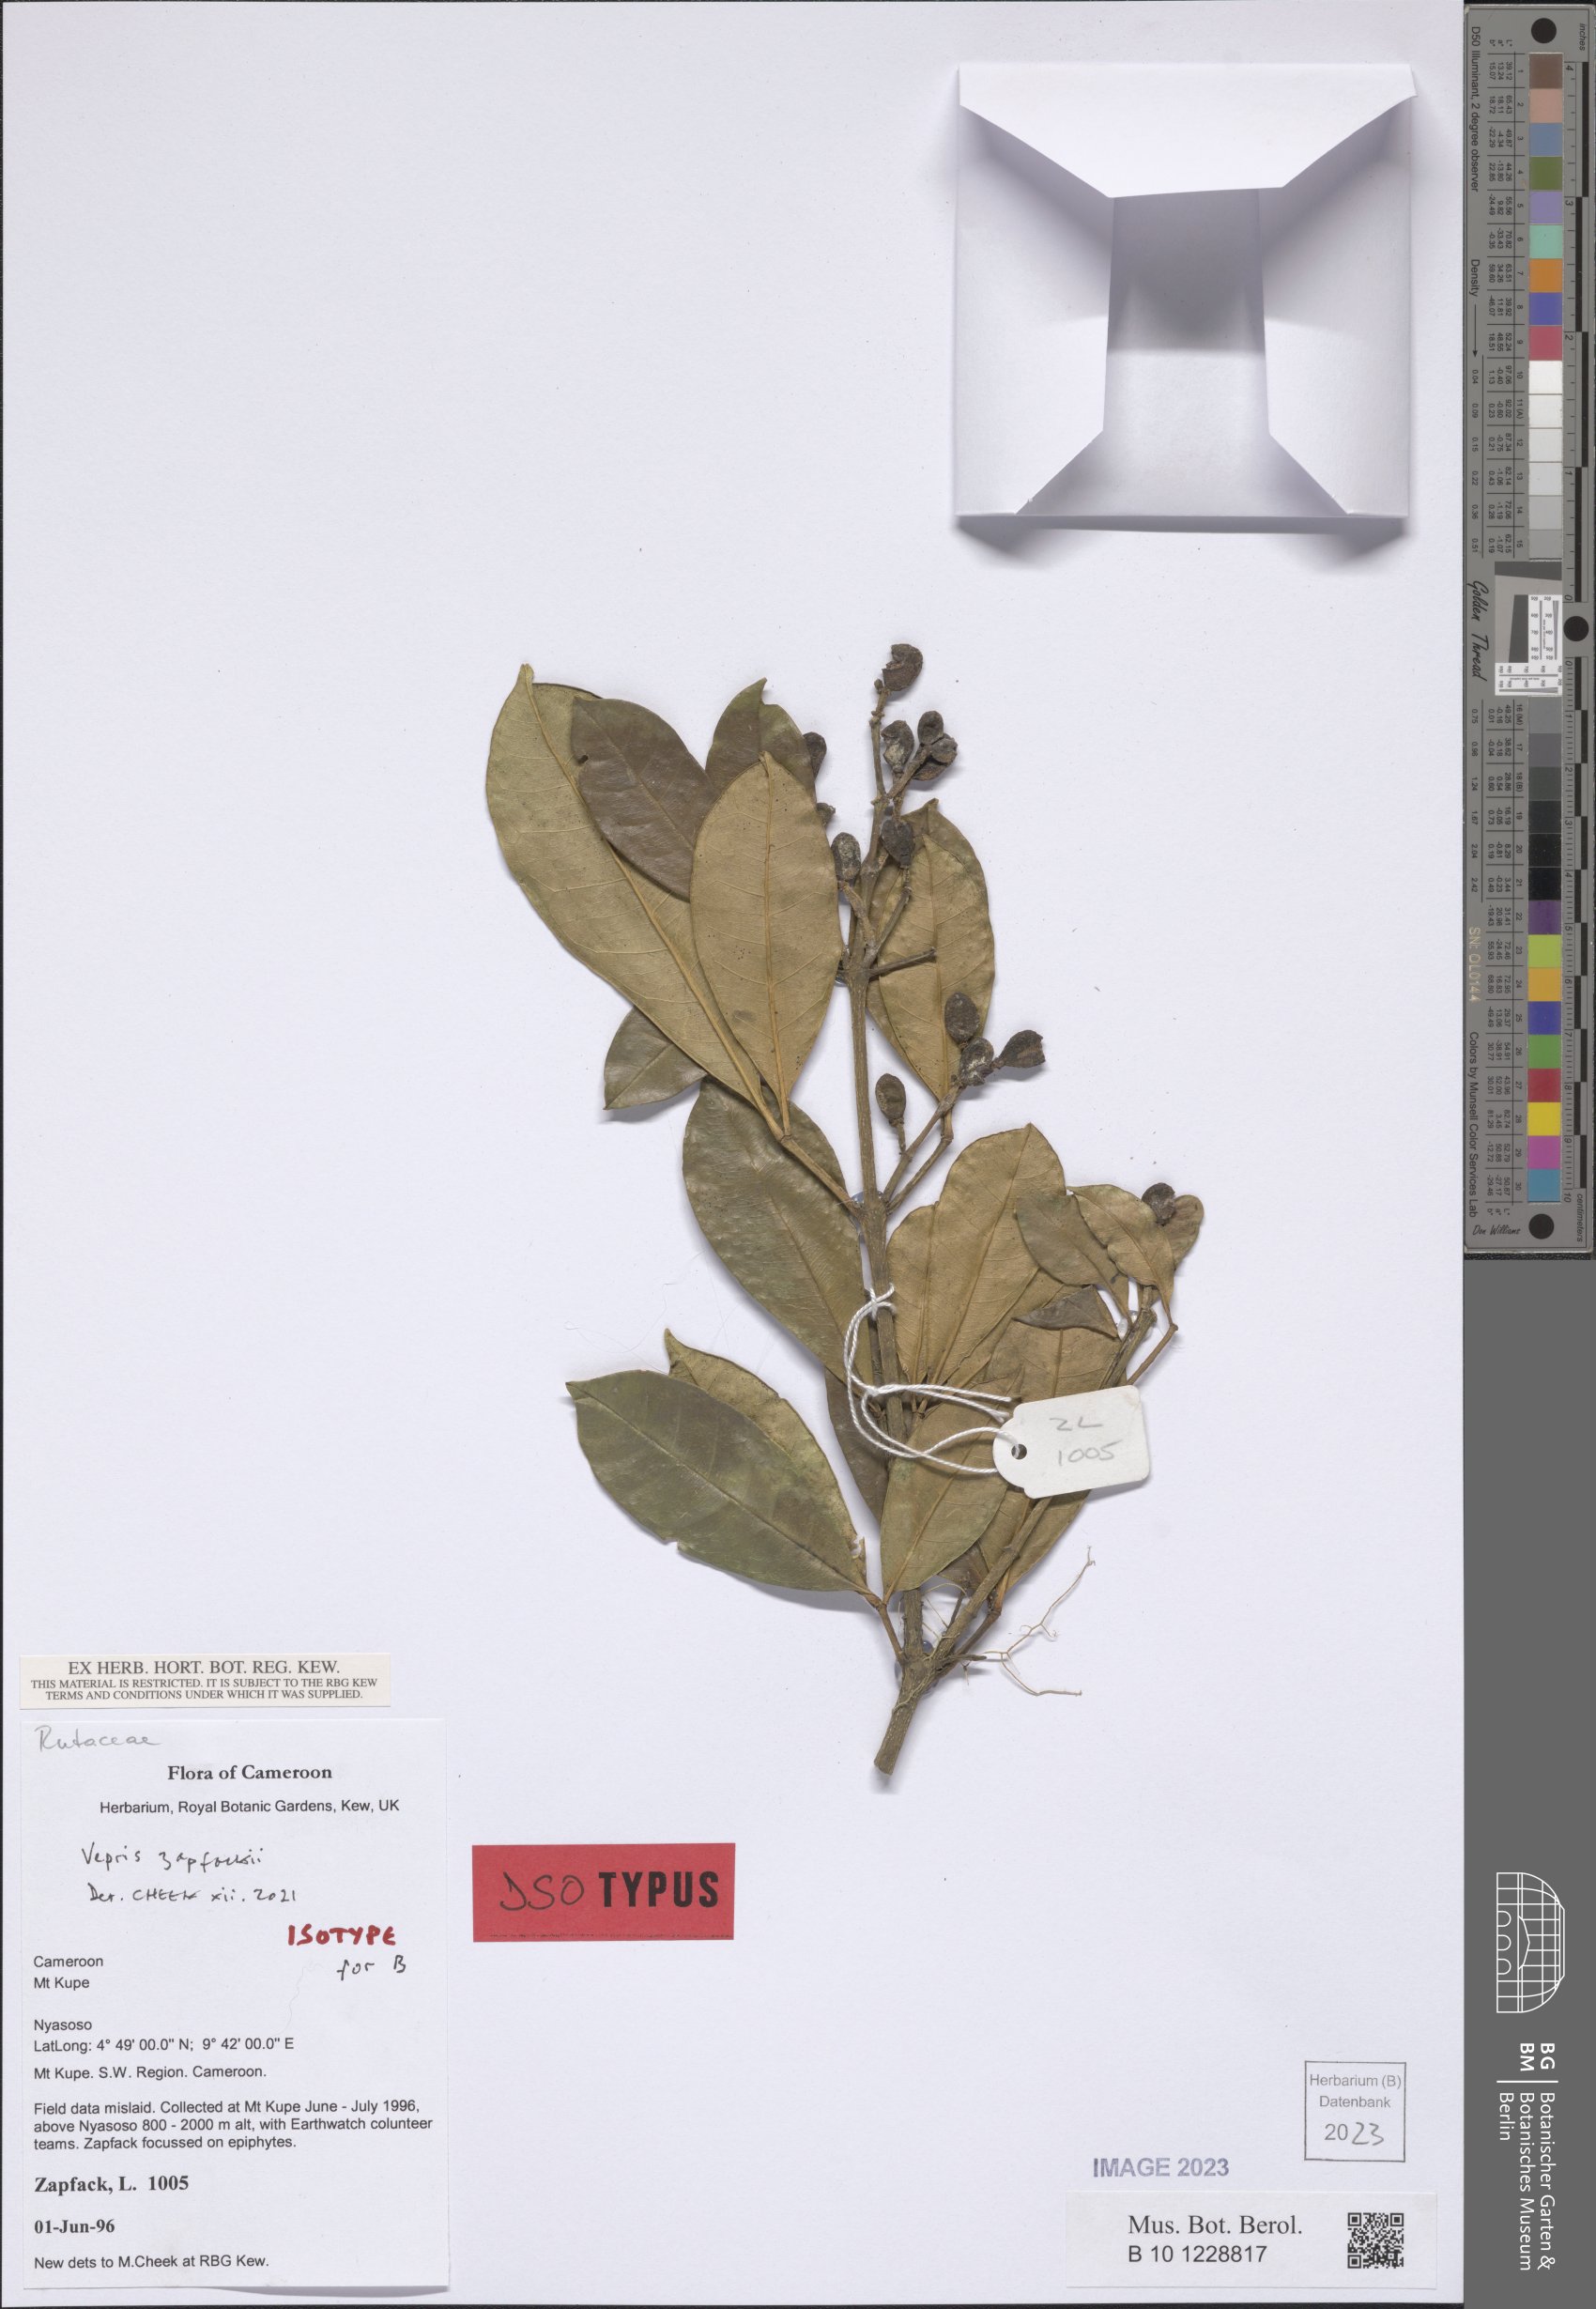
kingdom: Plantae
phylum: Tracheophyta
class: Magnoliopsida
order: Sapindales
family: Rutaceae
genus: Vepris
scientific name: Vepris zapfackii
